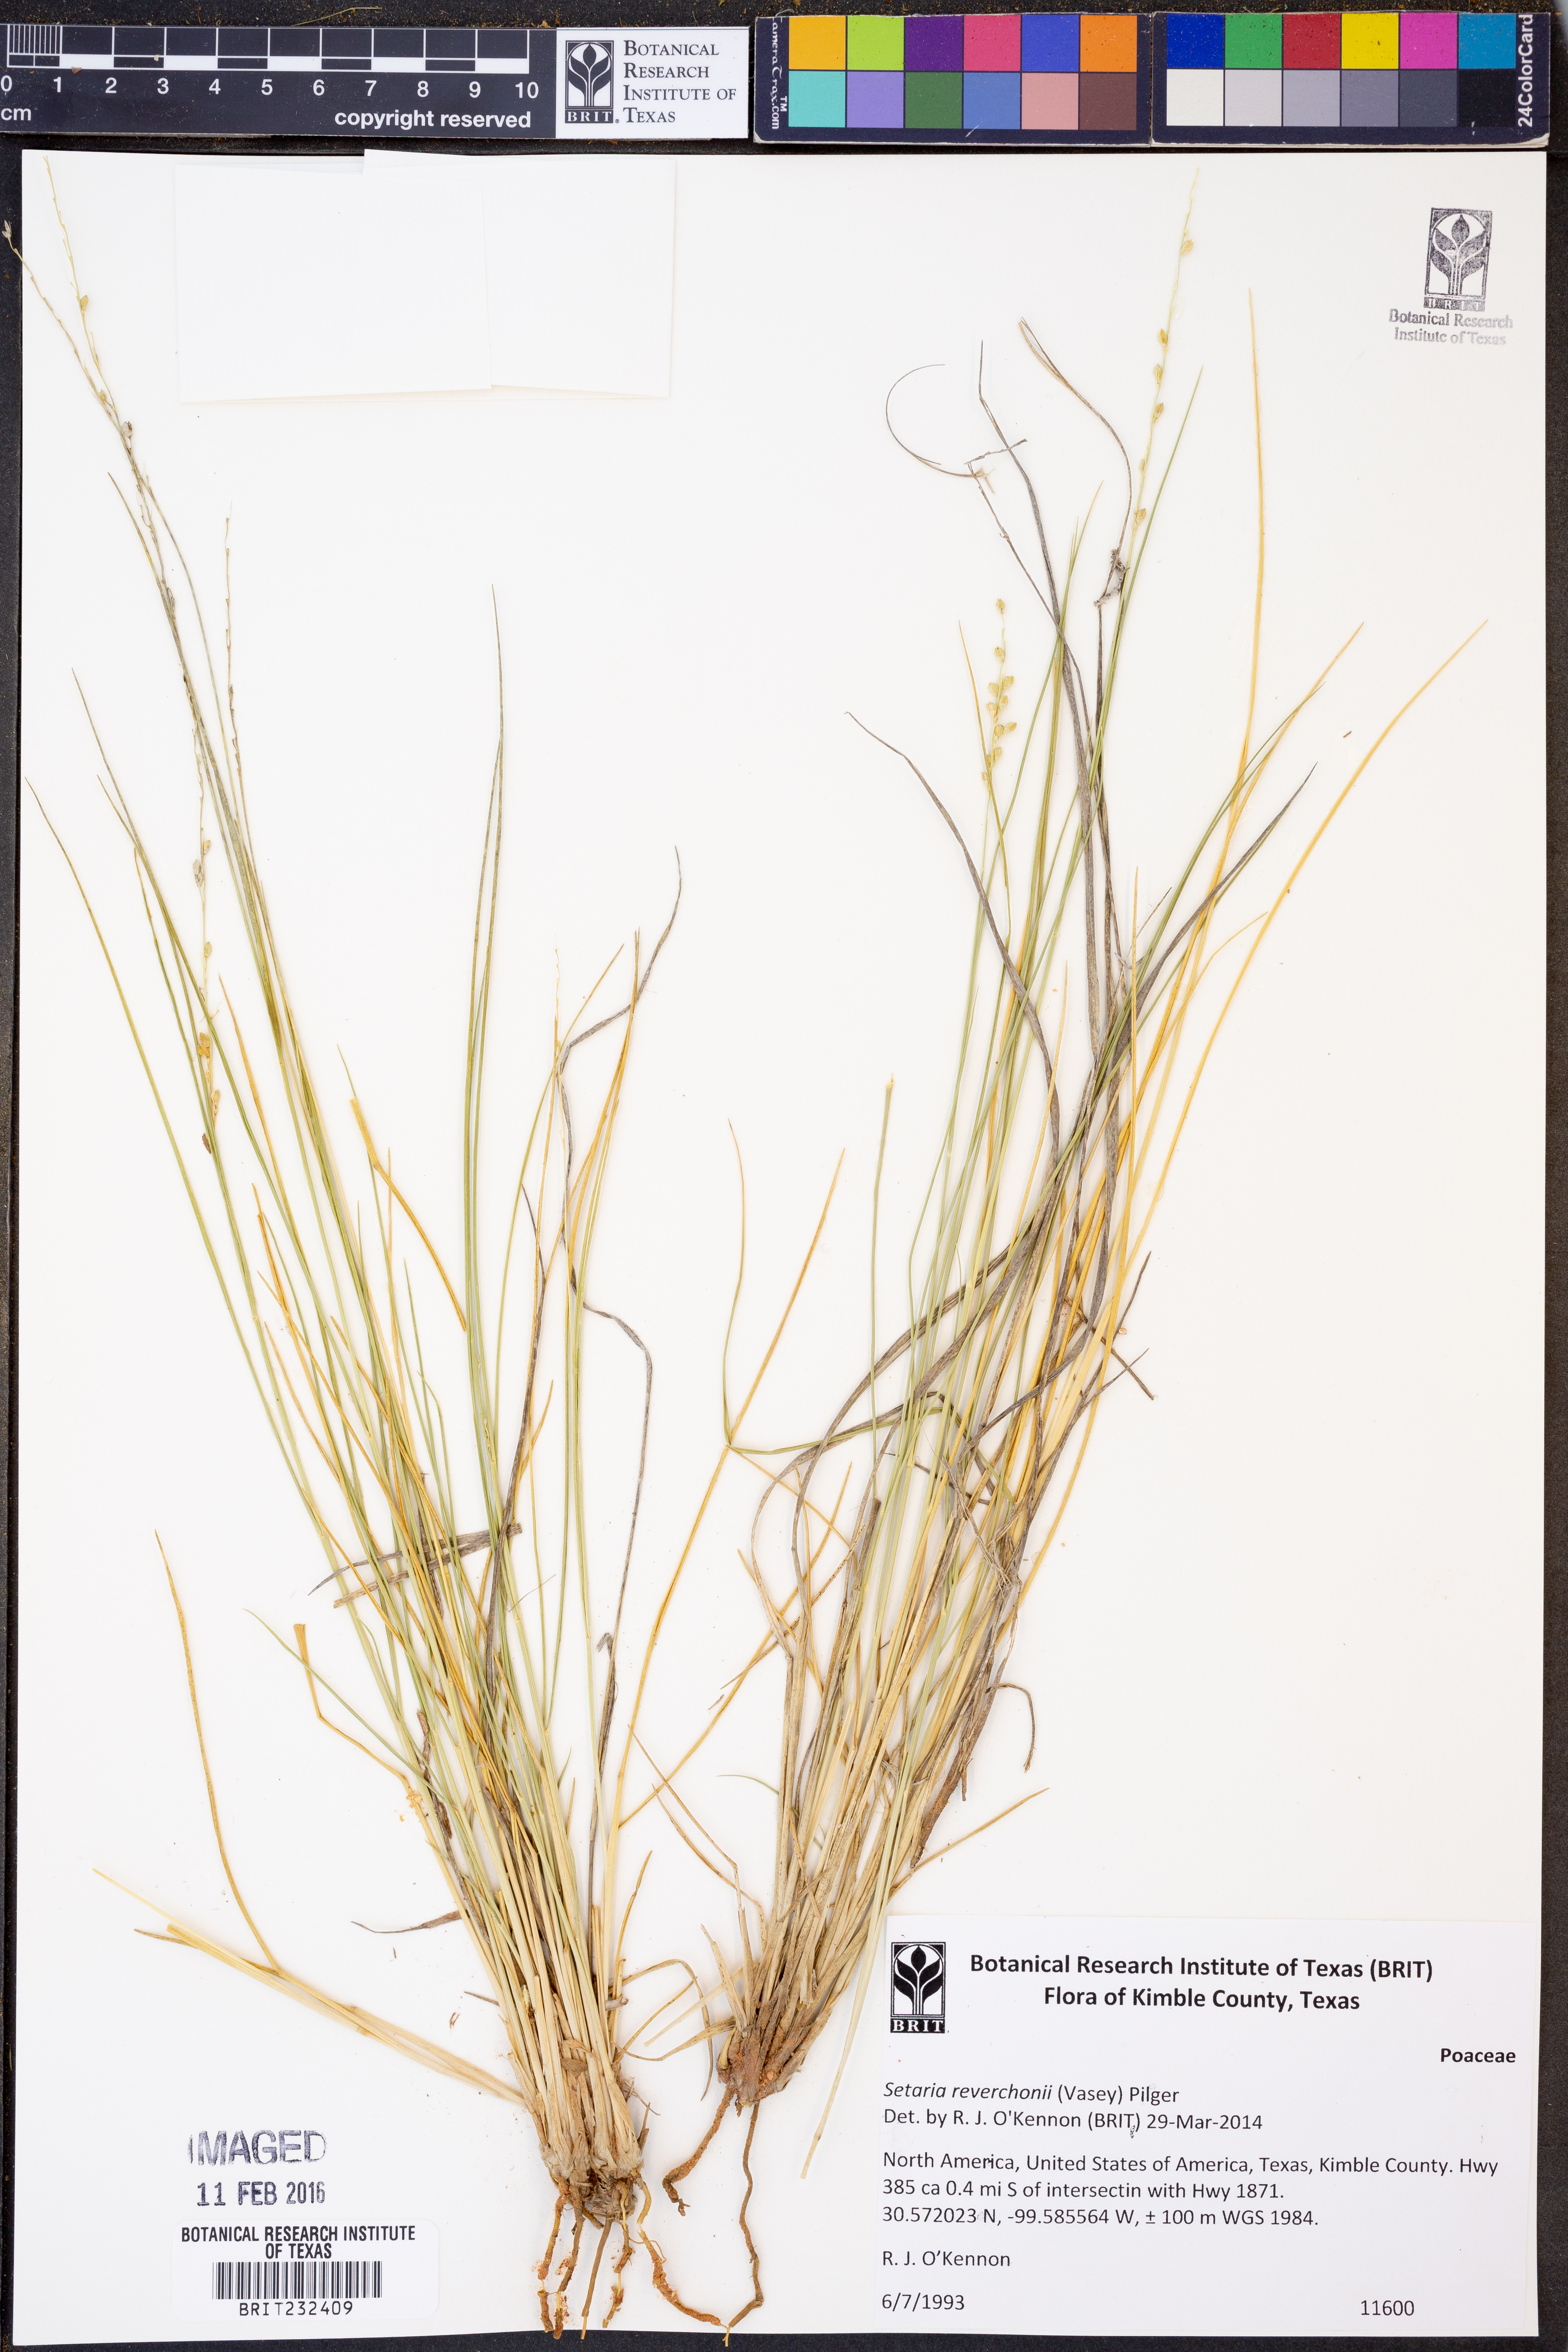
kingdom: Plantae
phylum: Tracheophyta
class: Liliopsida
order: Poales
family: Poaceae
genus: Setaria
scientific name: Setaria reverchonii
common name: Reverchon's bristle grass
